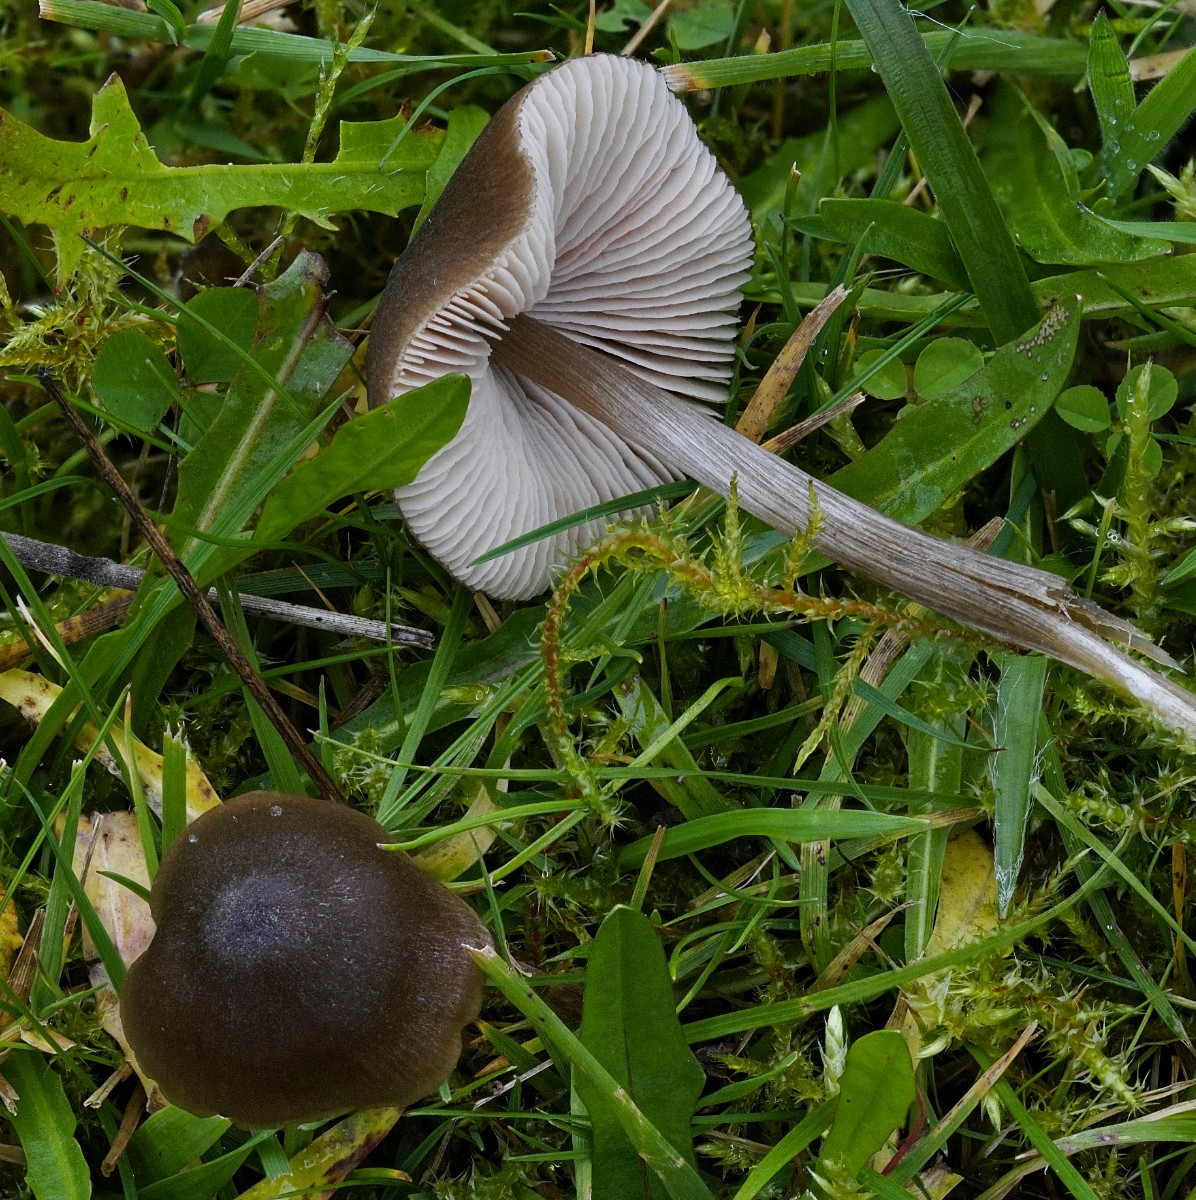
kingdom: Fungi
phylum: Basidiomycota
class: Agaricomycetes
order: Agaricales
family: Entolomataceae
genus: Entoloma
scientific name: Entoloma conferendum
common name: stjernesporet rødblad
